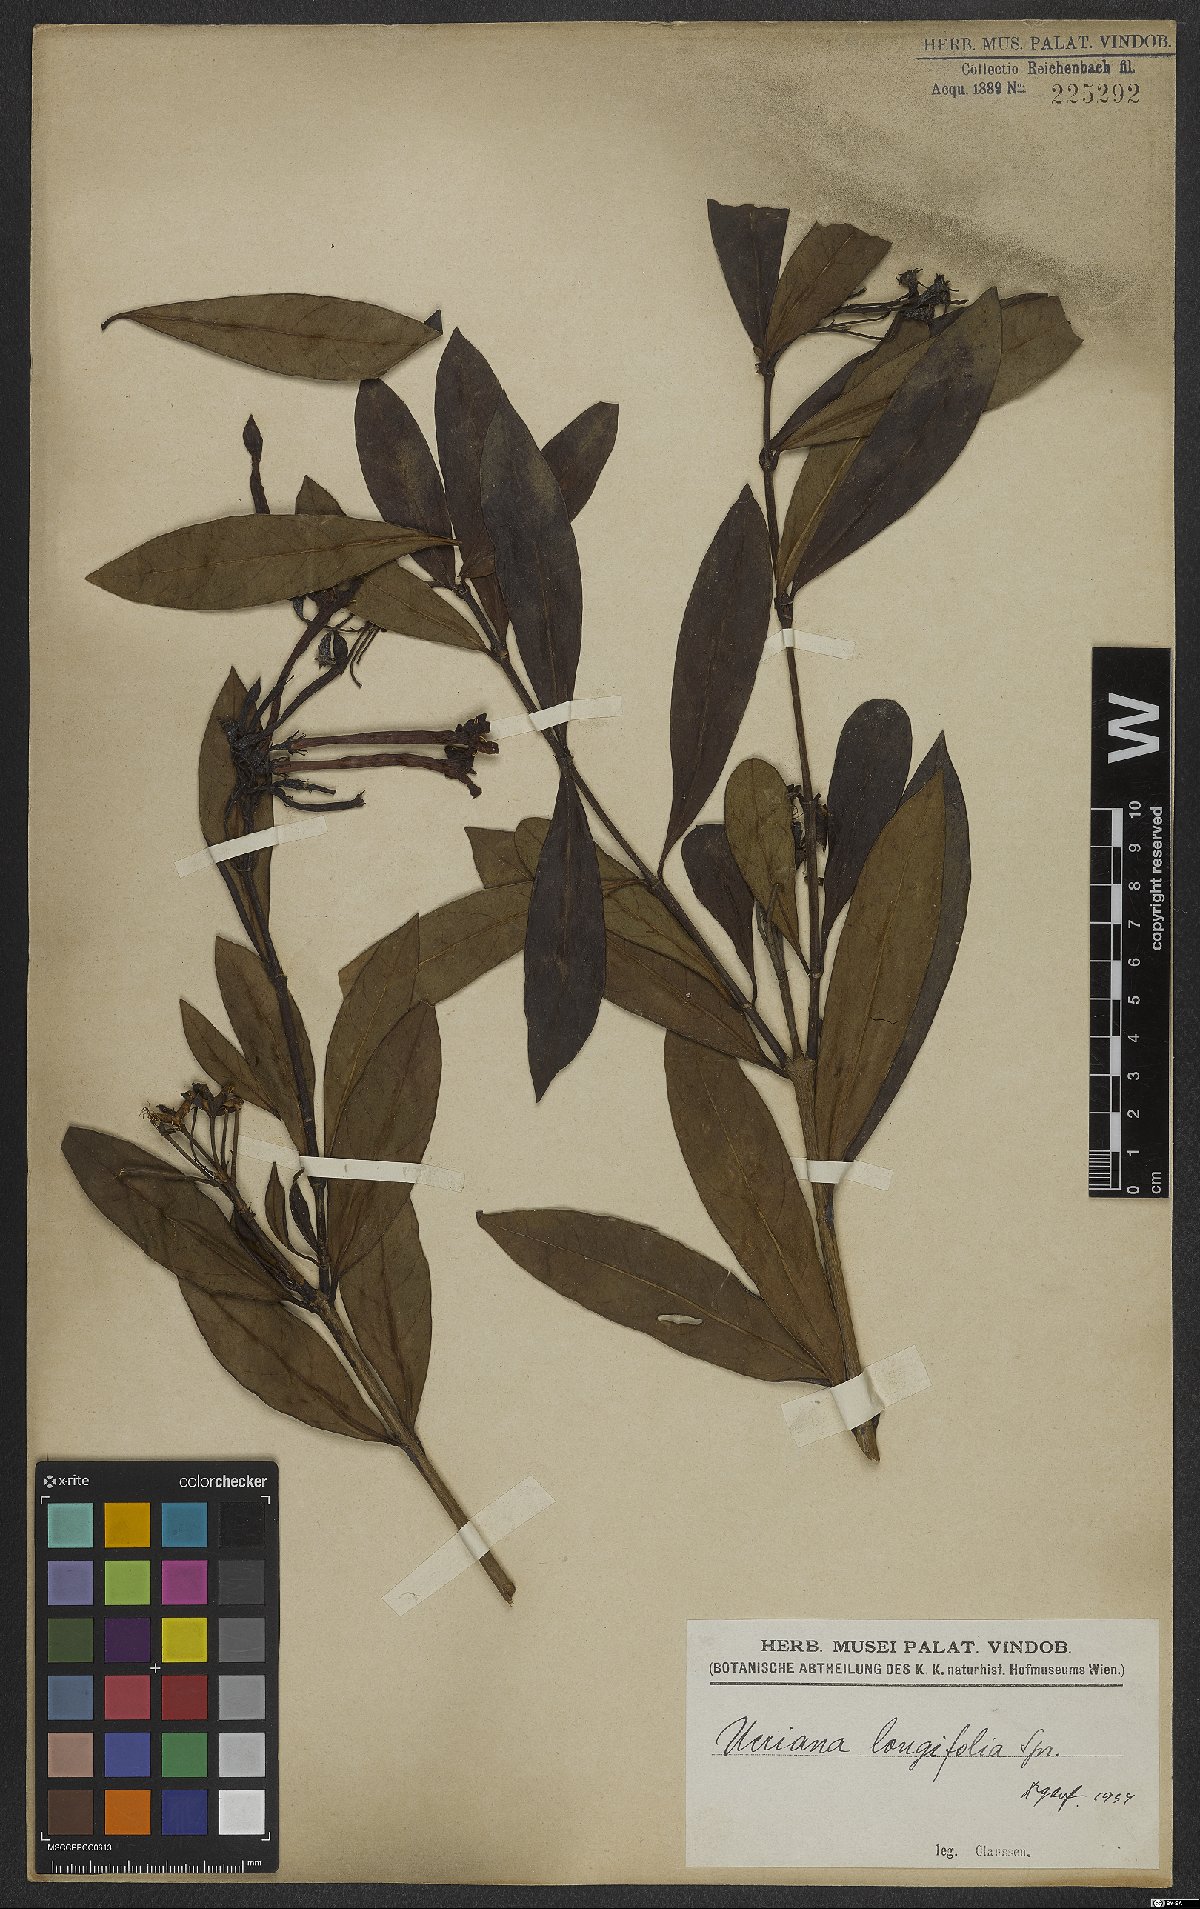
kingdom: Plantae
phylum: Tracheophyta
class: Magnoliopsida
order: Gentianales
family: Rubiaceae
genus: Augusta
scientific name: Augusta longifolia
